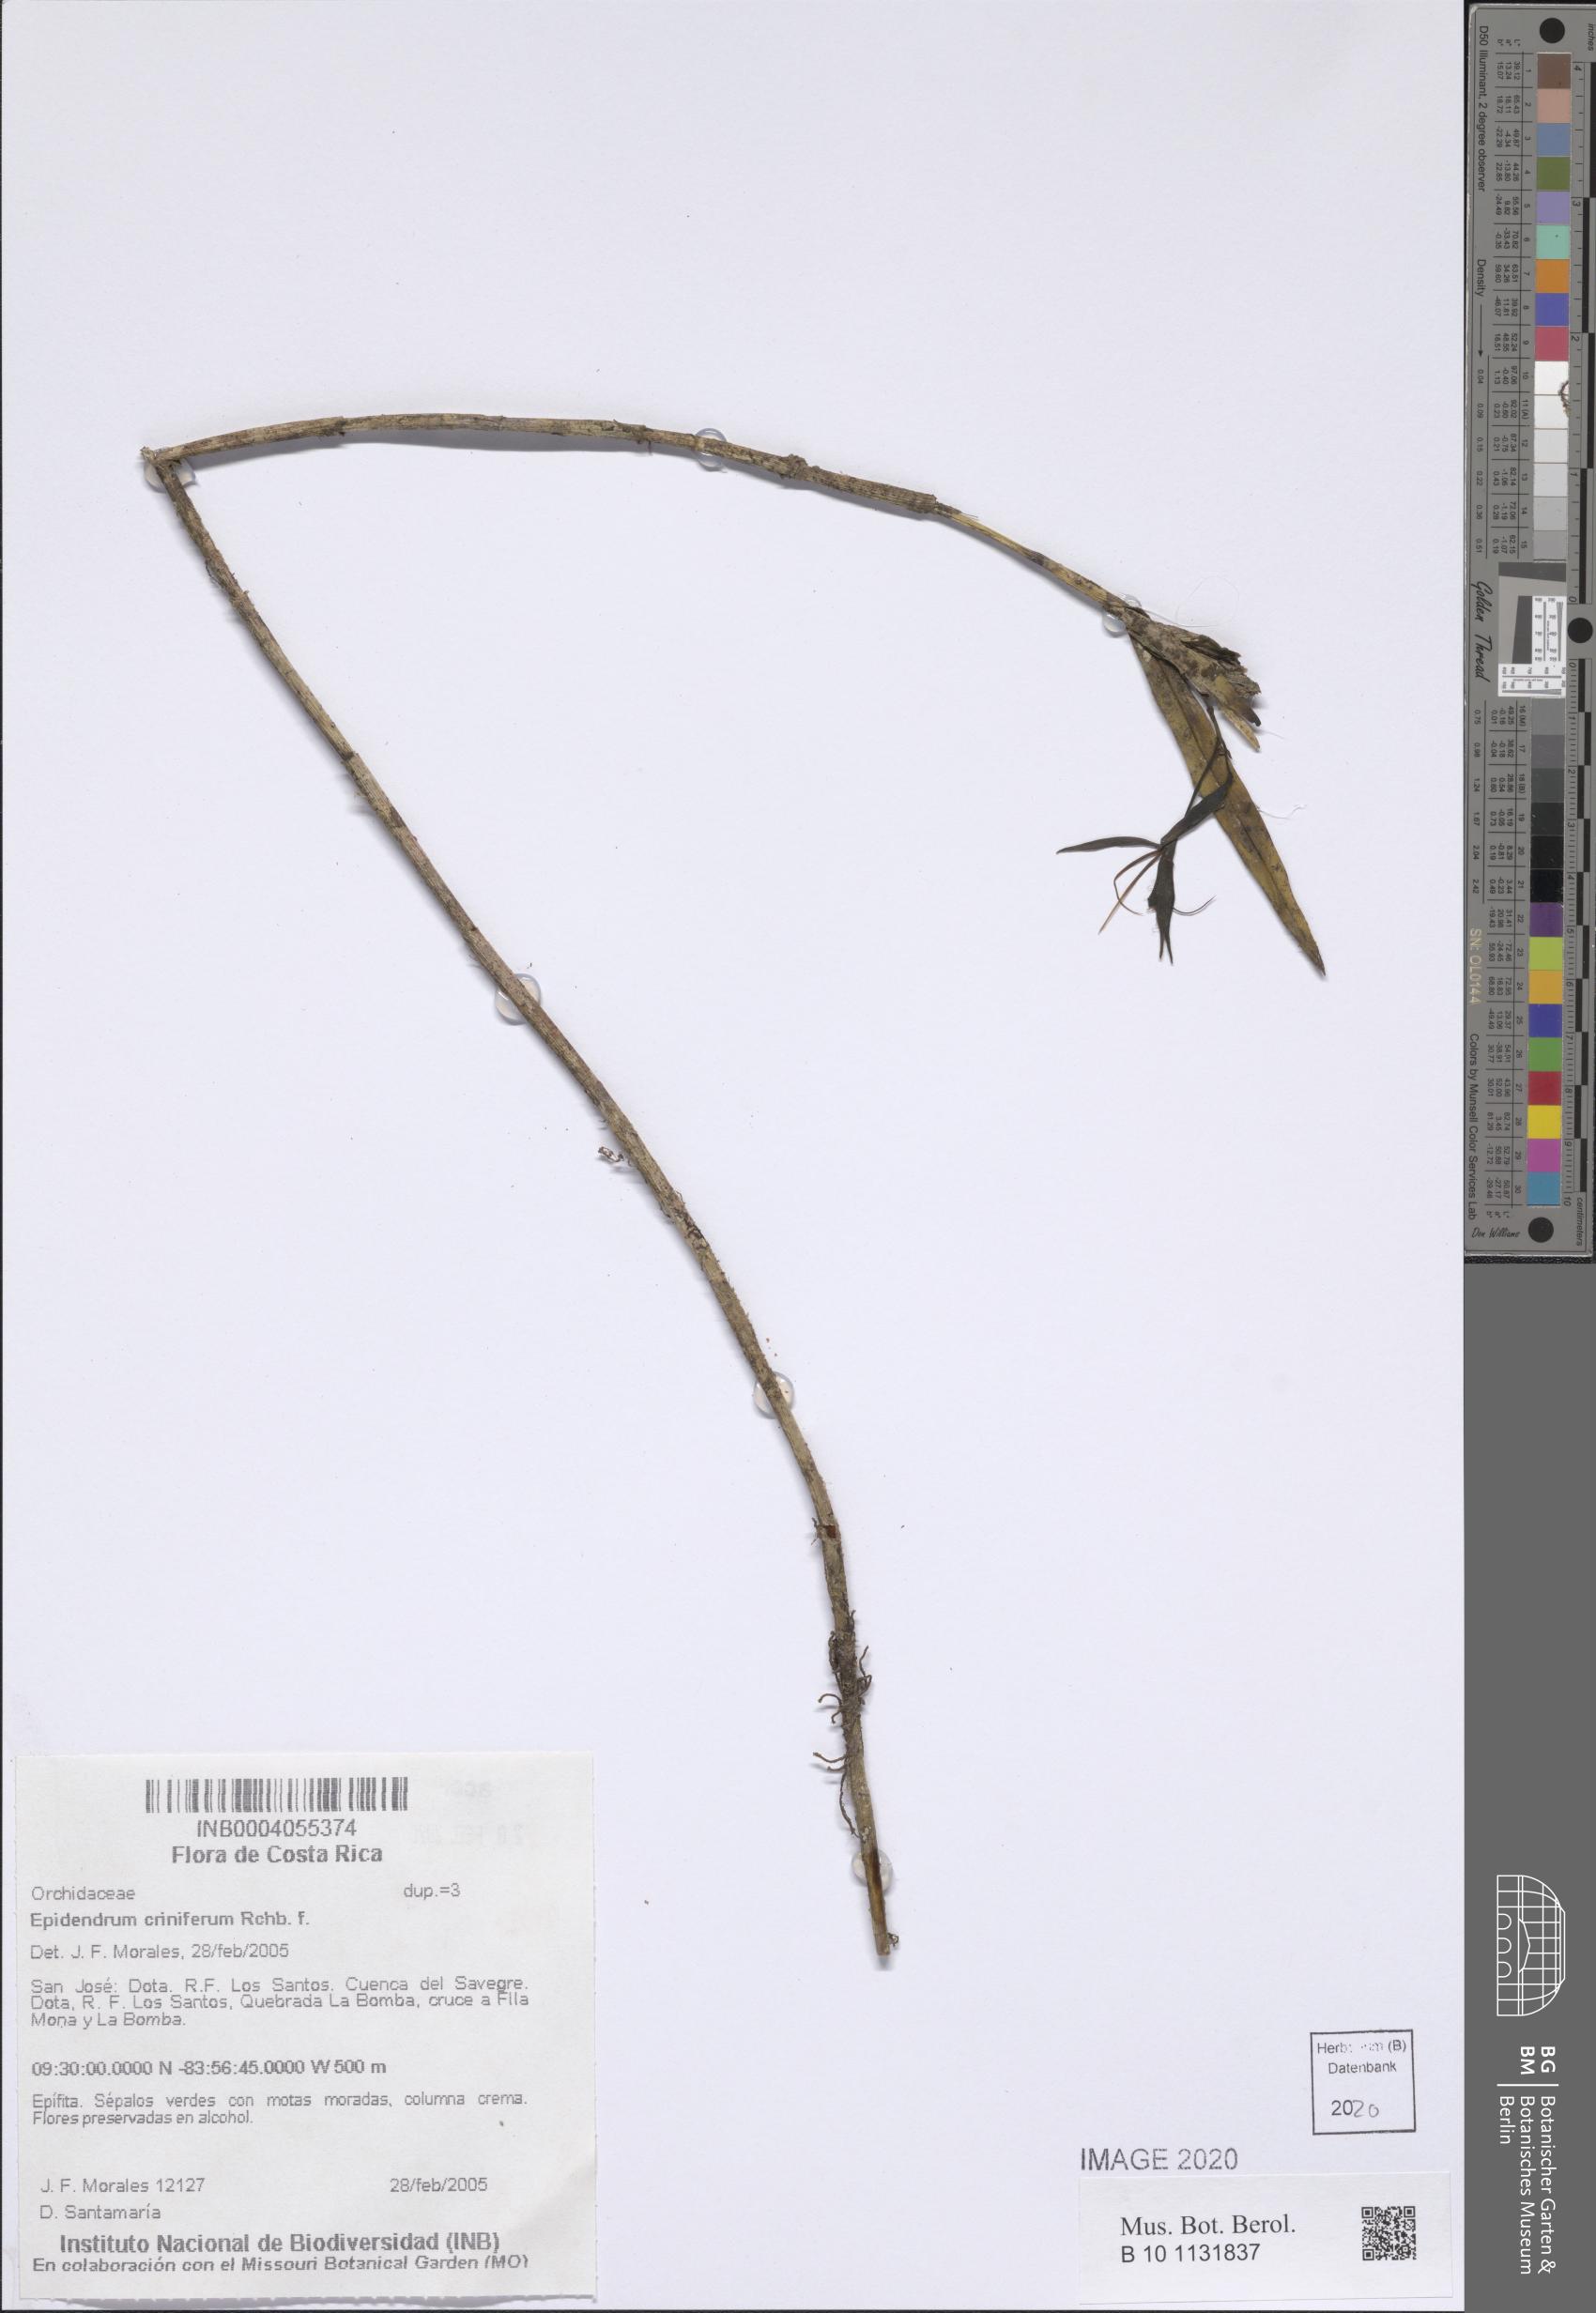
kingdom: Plantae
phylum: Tracheophyta
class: Liliopsida
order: Asparagales
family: Orchidaceae
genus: Epidendrum
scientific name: Epidendrum criniferum
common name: Bract carrying epidendrum
